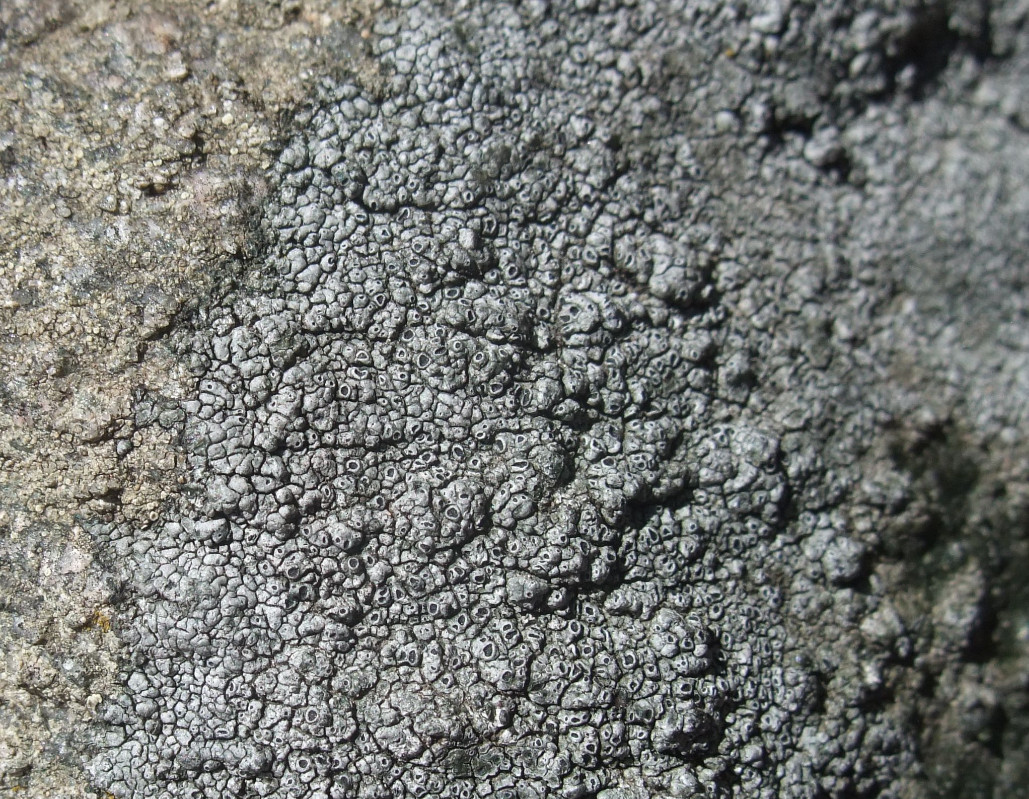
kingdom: Fungi
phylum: Ascomycota
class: Lecanoromycetes
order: Pertusariales
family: Megasporaceae
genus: Circinaria
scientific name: Circinaria caesiocinerea
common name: fuglestens-hulskivelav
